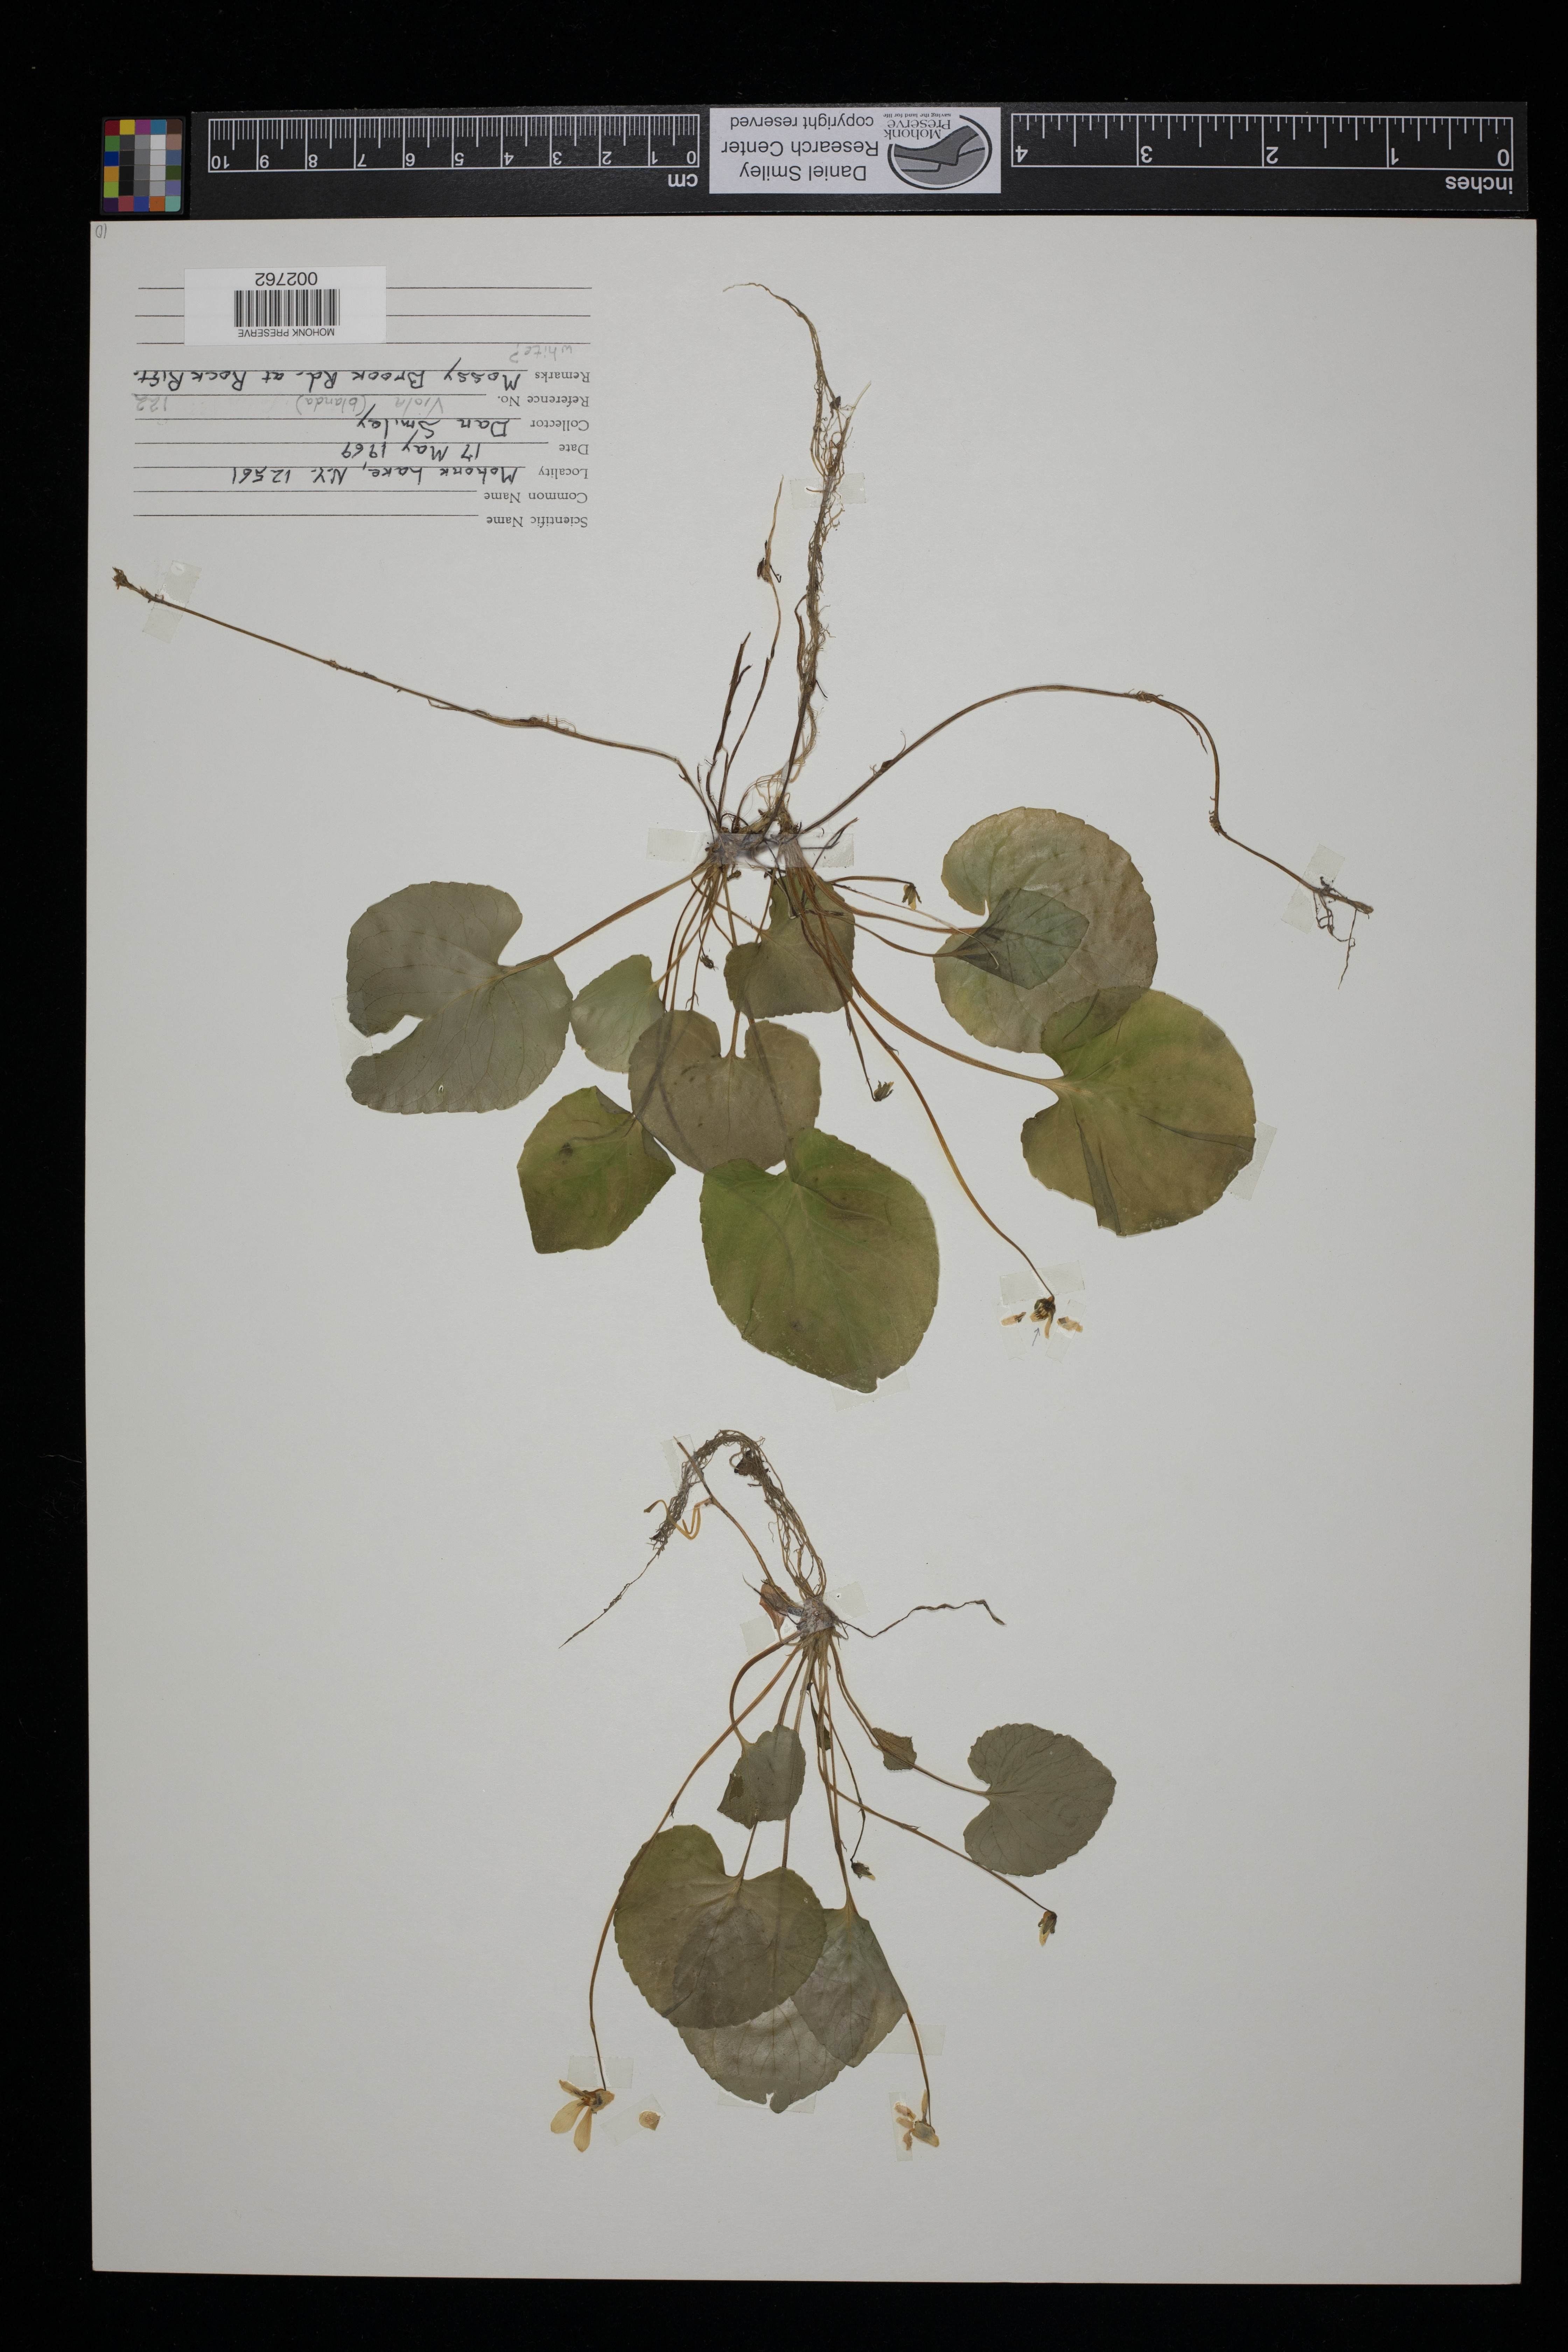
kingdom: Plantae
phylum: Tracheophyta
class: Magnoliopsida
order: Malpighiales
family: Violaceae
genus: Viola
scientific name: Viola blanda
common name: Sweet white violet
